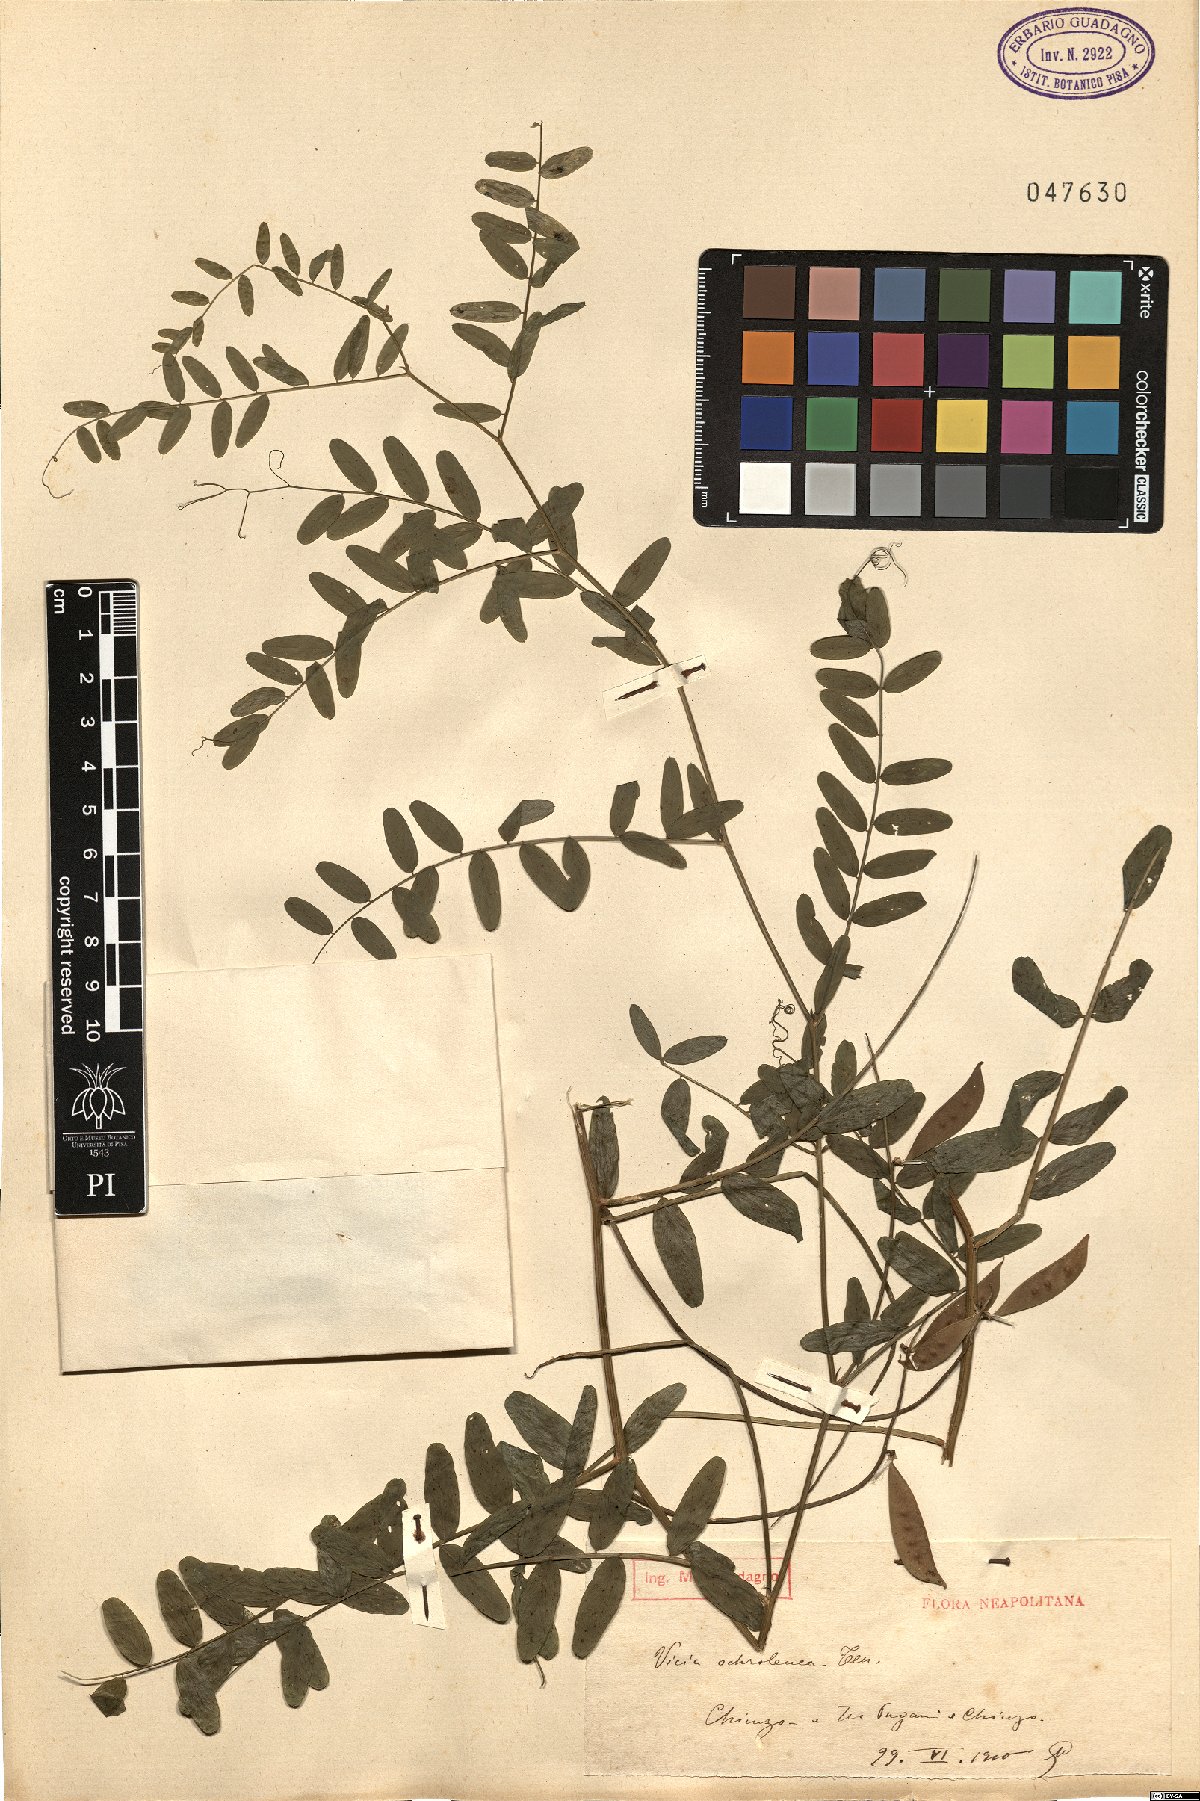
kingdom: Plantae
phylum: Tracheophyta
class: Magnoliopsida
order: Fabales
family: Fabaceae
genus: Vicia
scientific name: Vicia ochroleuca
